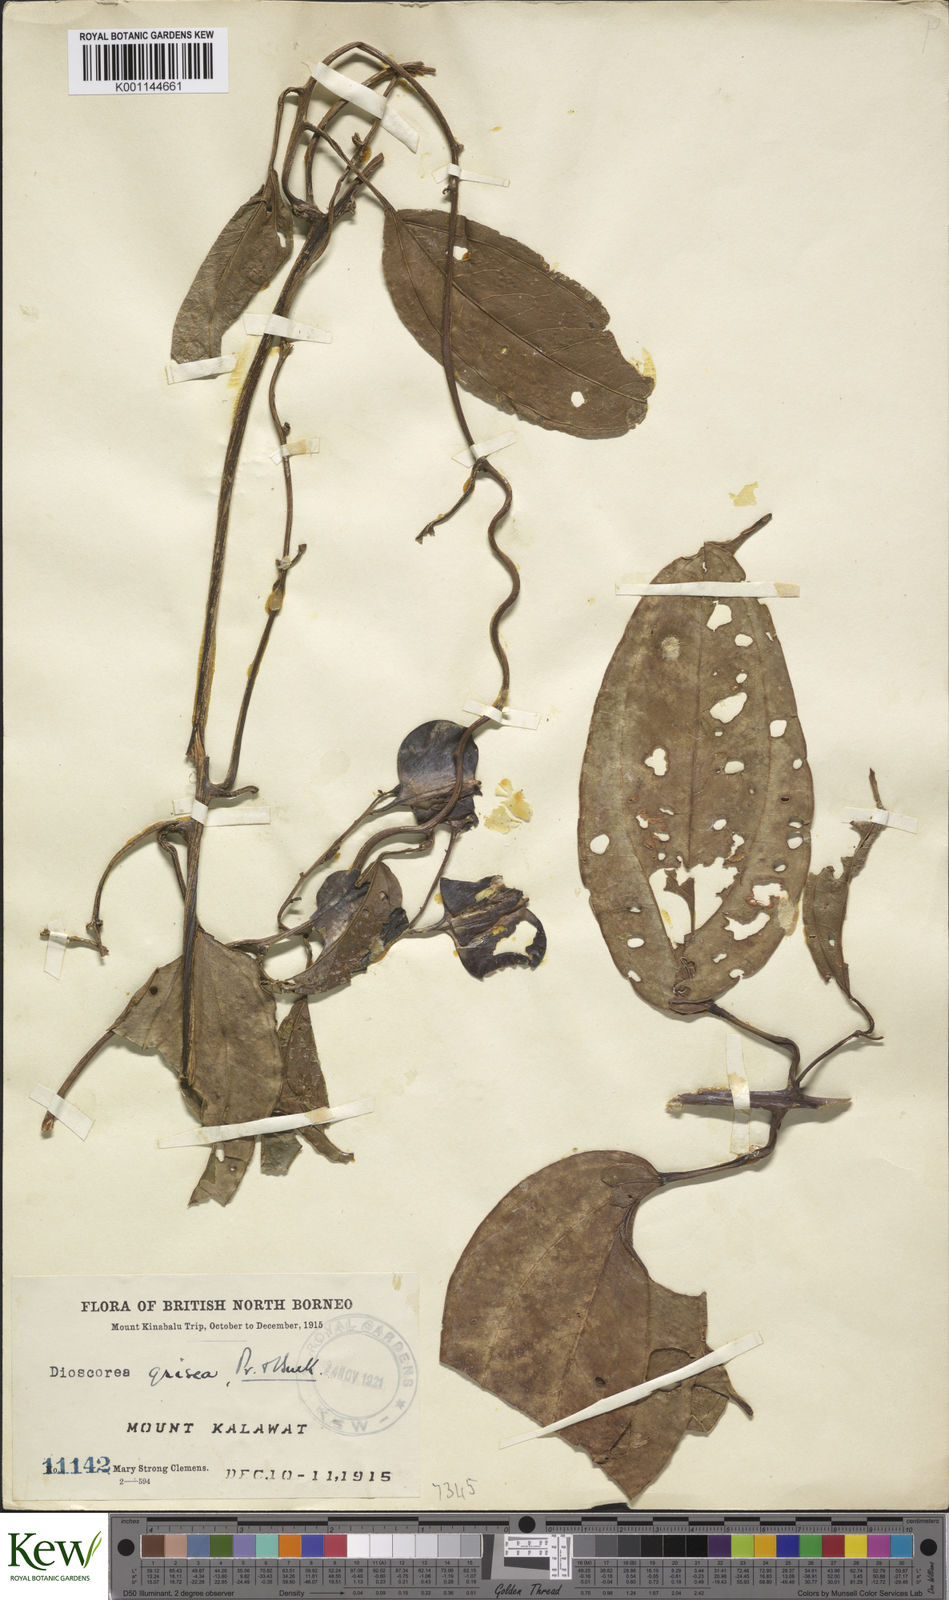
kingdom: Plantae
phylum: Tracheophyta
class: Liliopsida
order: Dioscoreales
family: Dioscoreaceae
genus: Dioscorea
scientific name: Dioscorea
